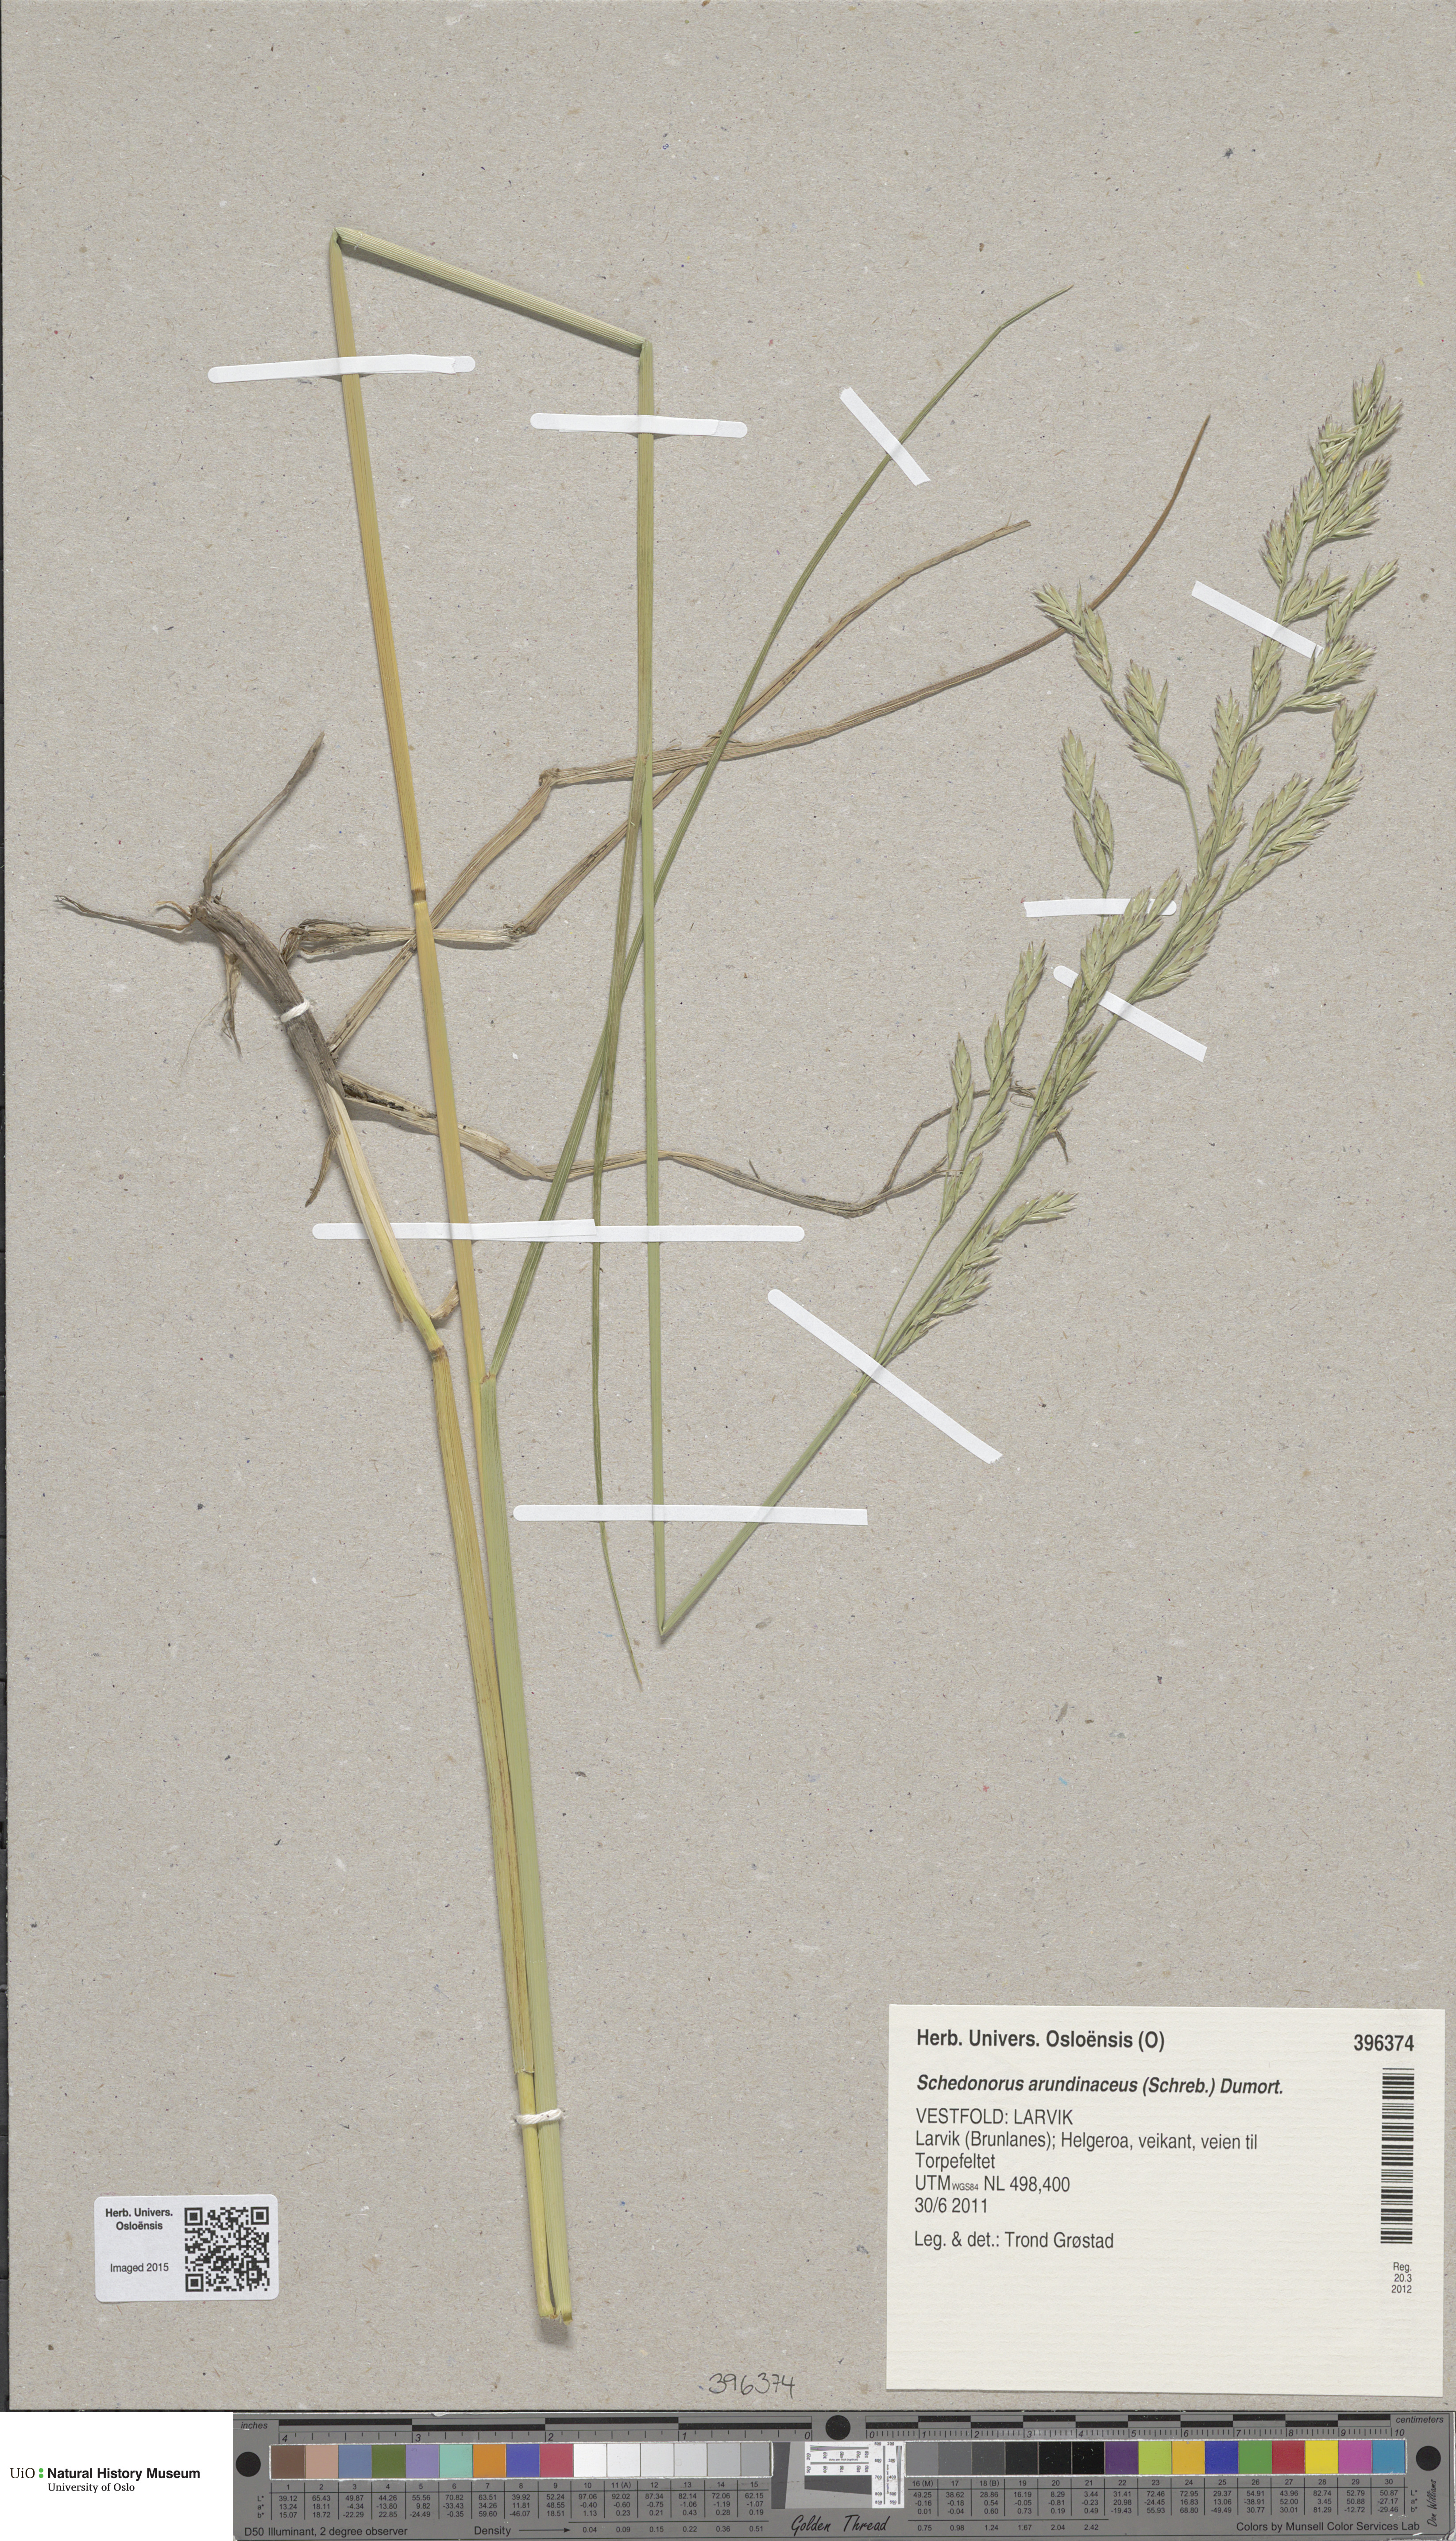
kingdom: Plantae
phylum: Tracheophyta
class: Liliopsida
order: Poales
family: Poaceae
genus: Lolium
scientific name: Lolium arundinaceum
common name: Reed fescue
